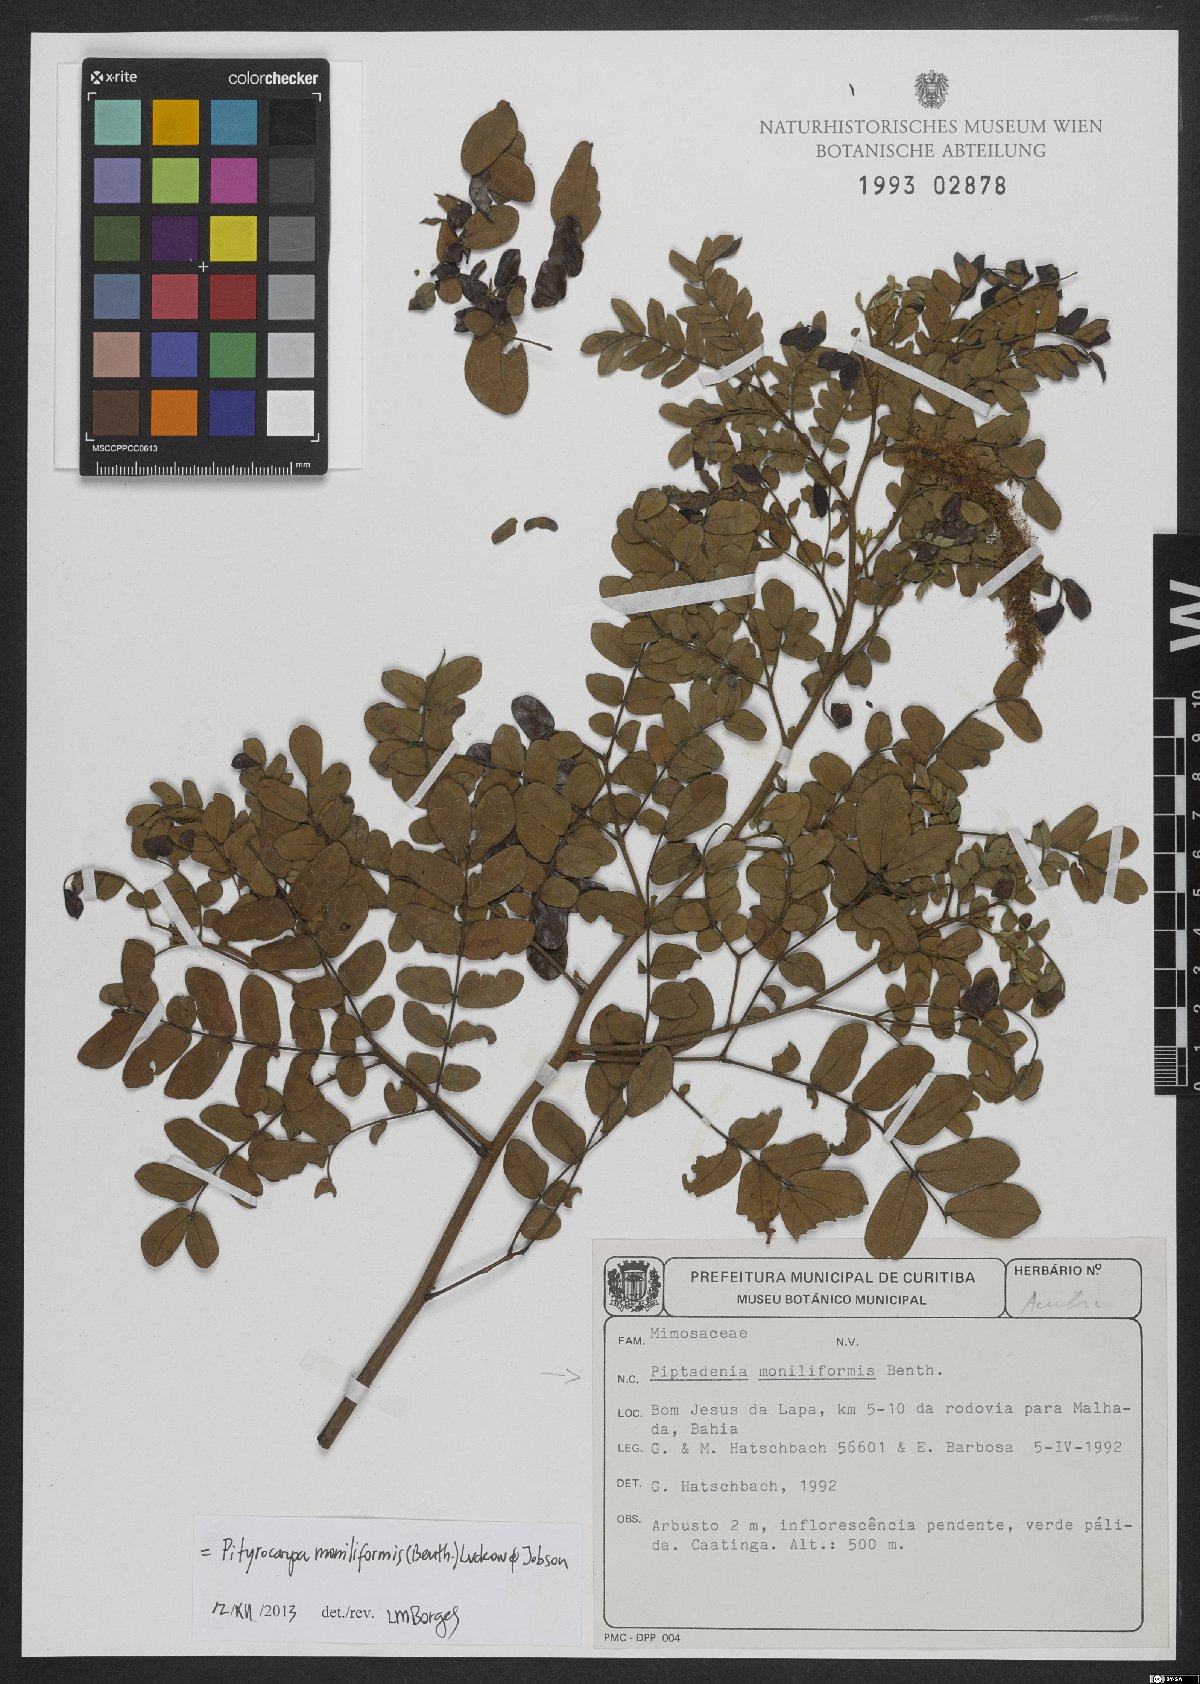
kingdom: Plantae
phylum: Tracheophyta
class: Magnoliopsida
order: Fabales
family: Fabaceae
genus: Pityrocarpa
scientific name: Pityrocarpa moniliformis
